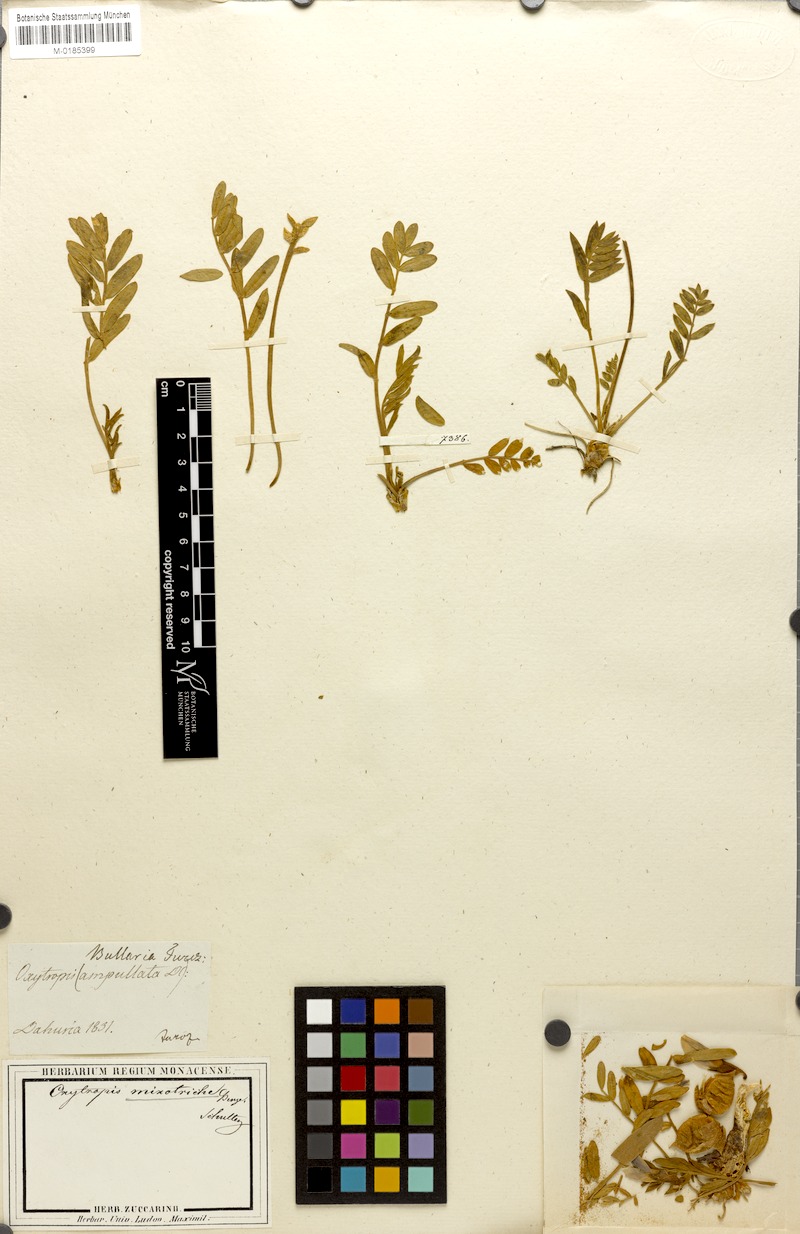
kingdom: Plantae
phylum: Tracheophyta
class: Magnoliopsida
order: Fabales
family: Fabaceae
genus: Oxytropis
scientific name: Oxytropis ampullata
